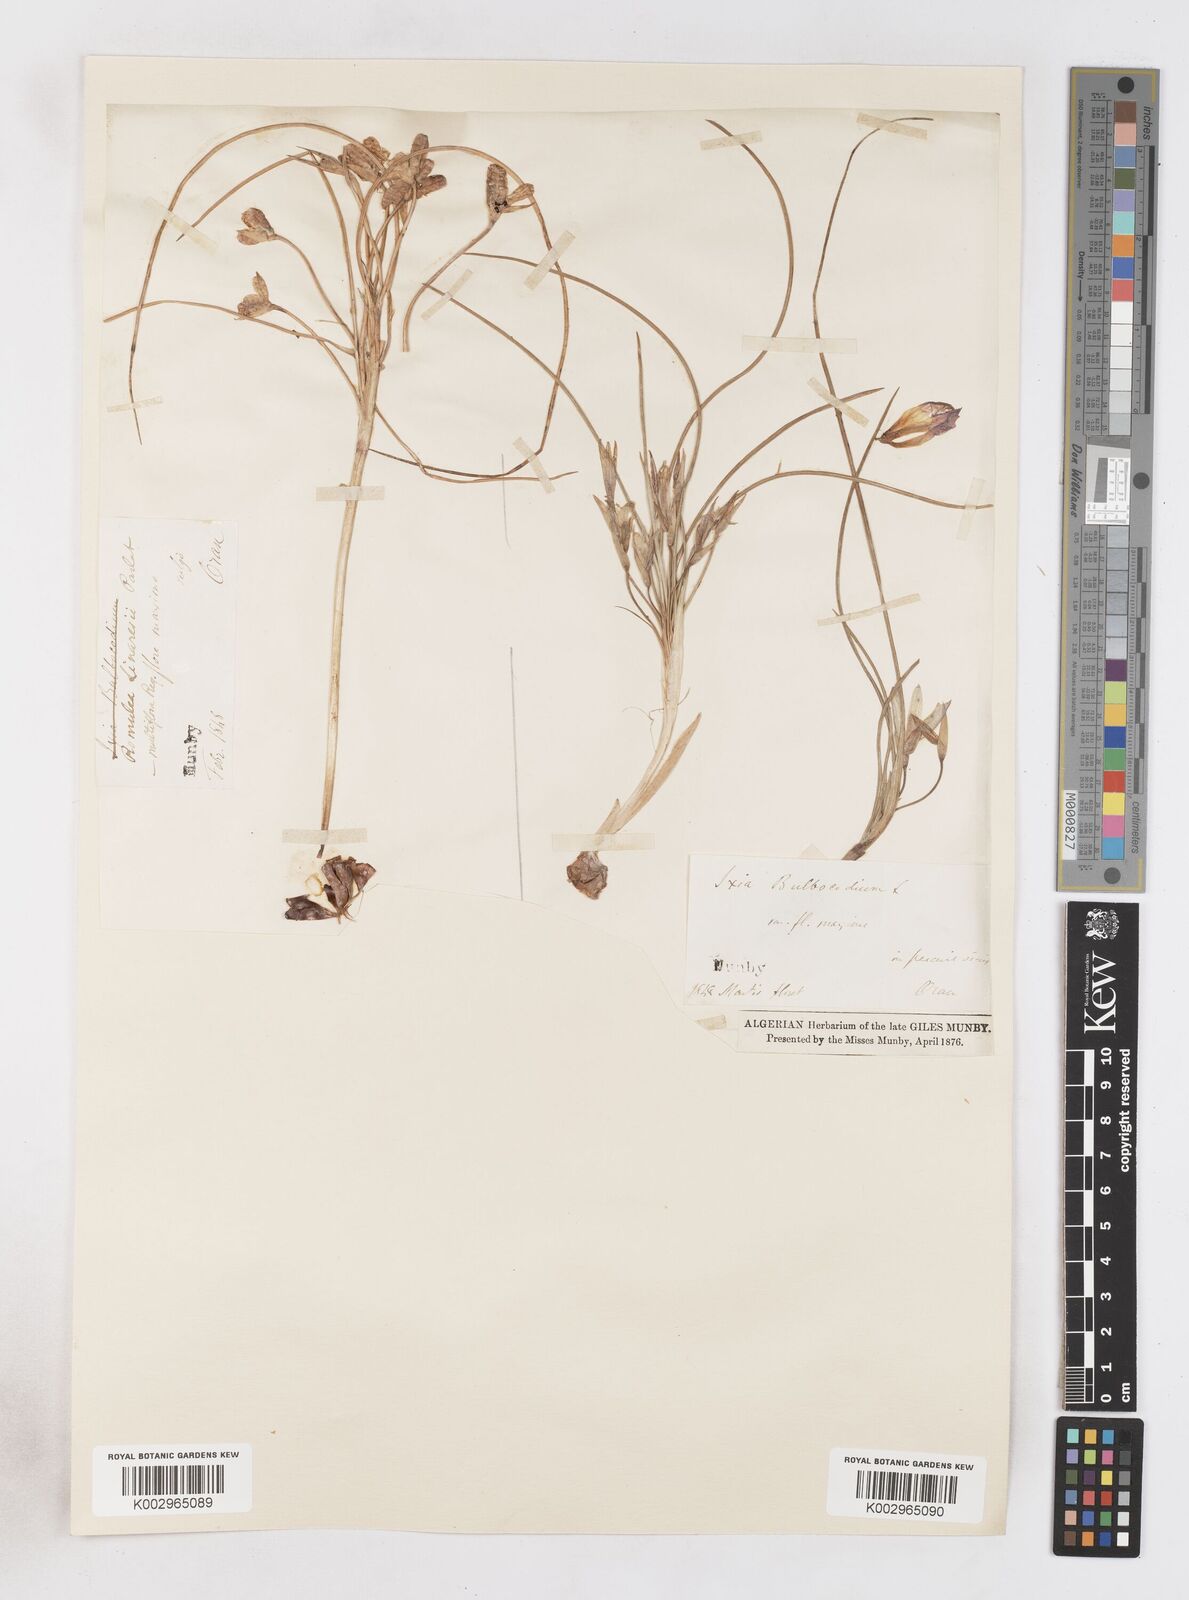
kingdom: Plantae
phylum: Tracheophyta
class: Liliopsida
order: Asparagales
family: Iridaceae
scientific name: Iridaceae
